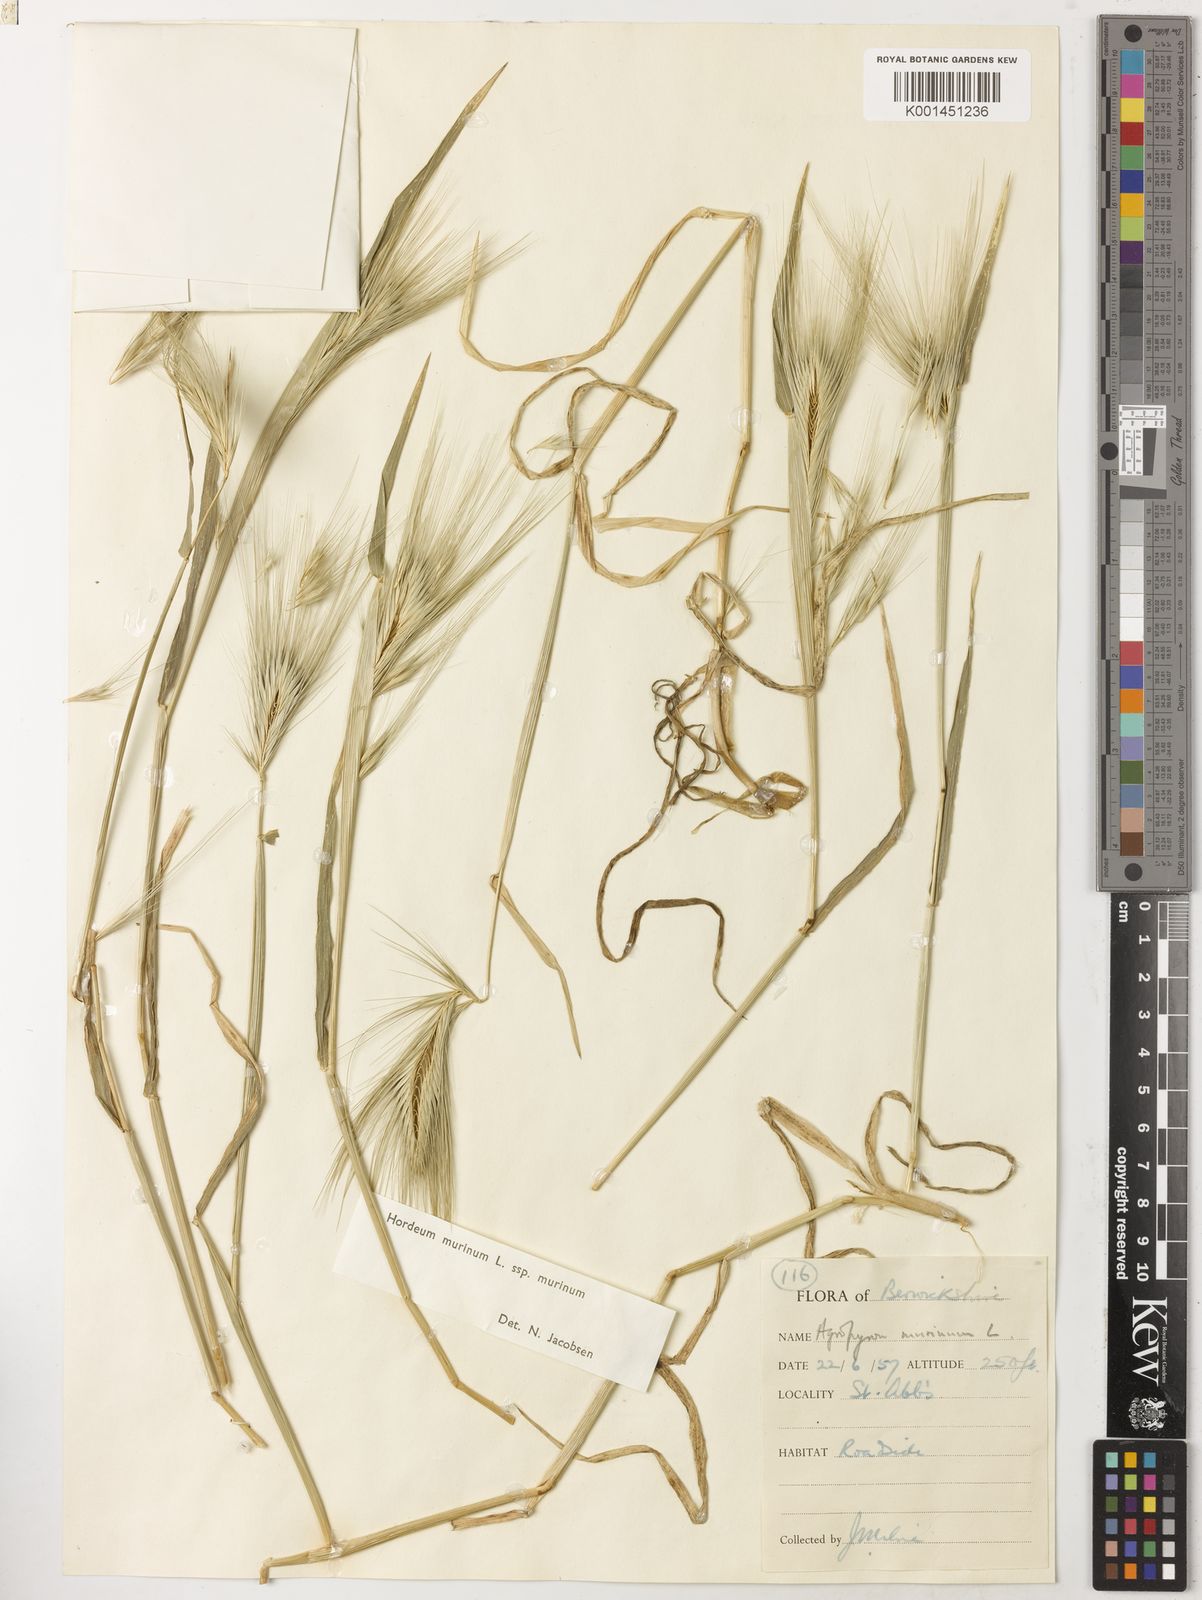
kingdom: Plantae
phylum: Tracheophyta
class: Liliopsida
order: Poales
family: Poaceae
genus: Hordeum
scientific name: Hordeum murinum
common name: Wall barley
